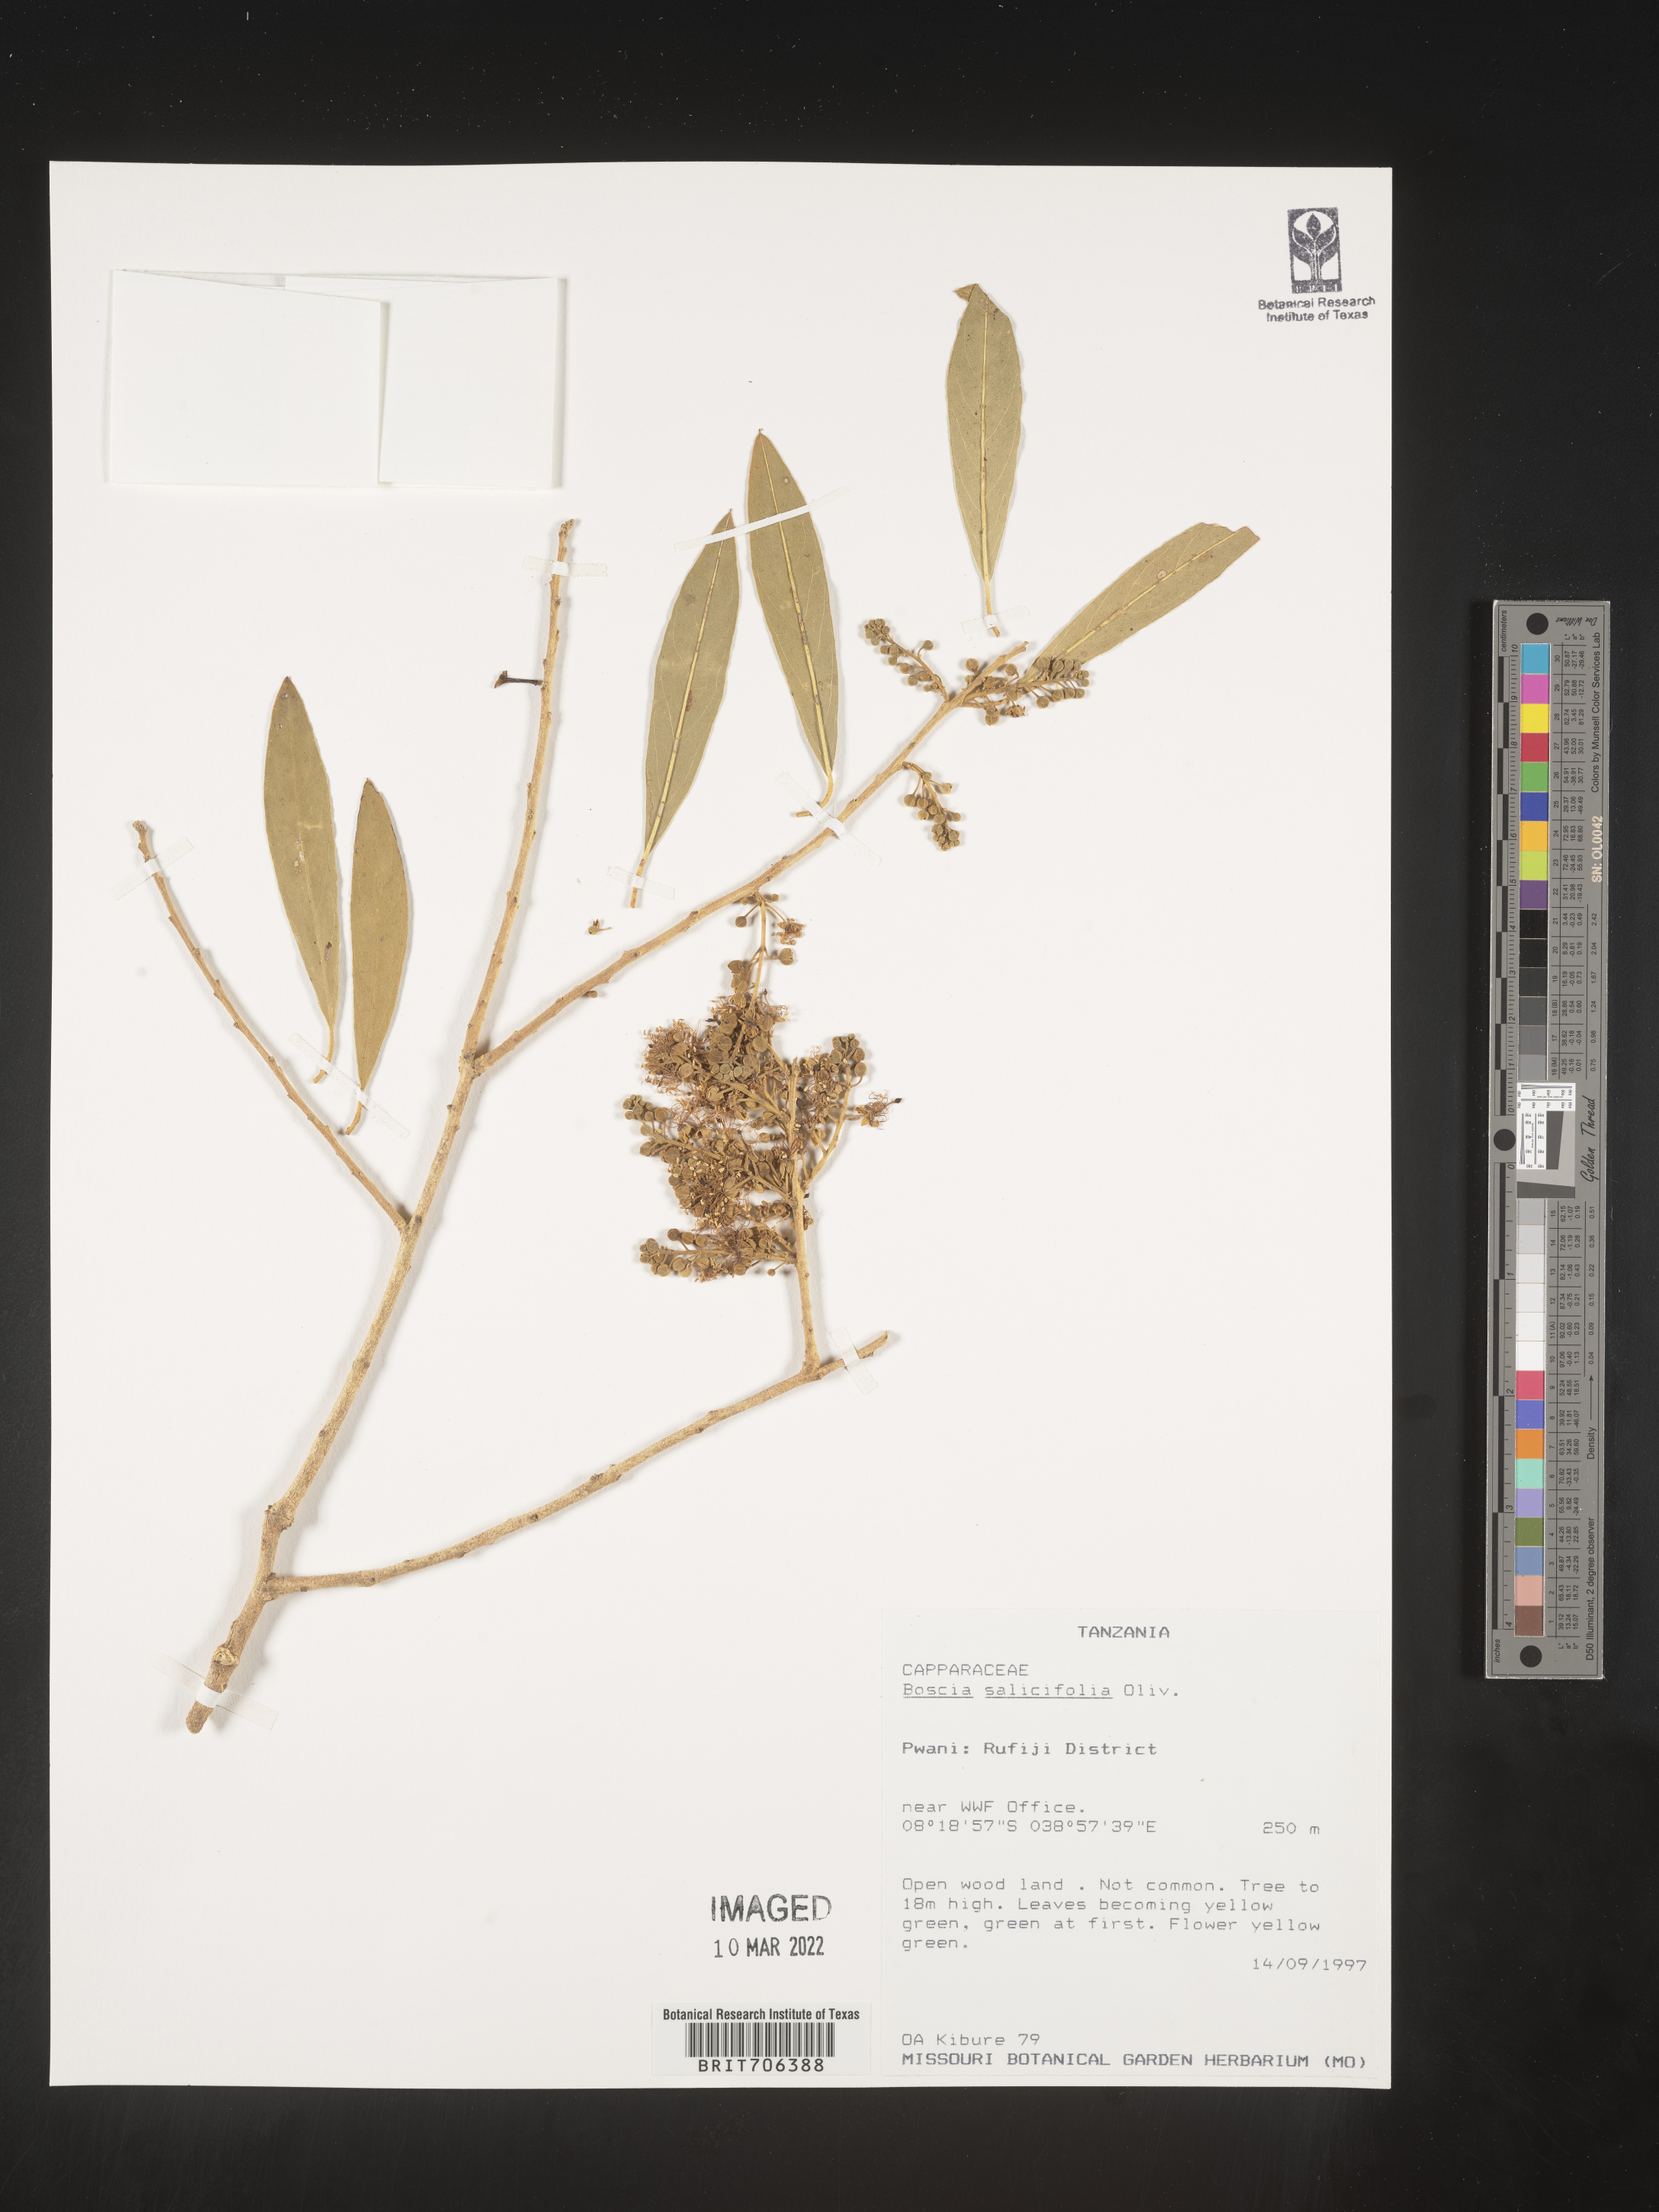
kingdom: Plantae
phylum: Tracheophyta
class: Magnoliopsida
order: Brassicales
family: Capparaceae
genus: Boscia
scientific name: Boscia
